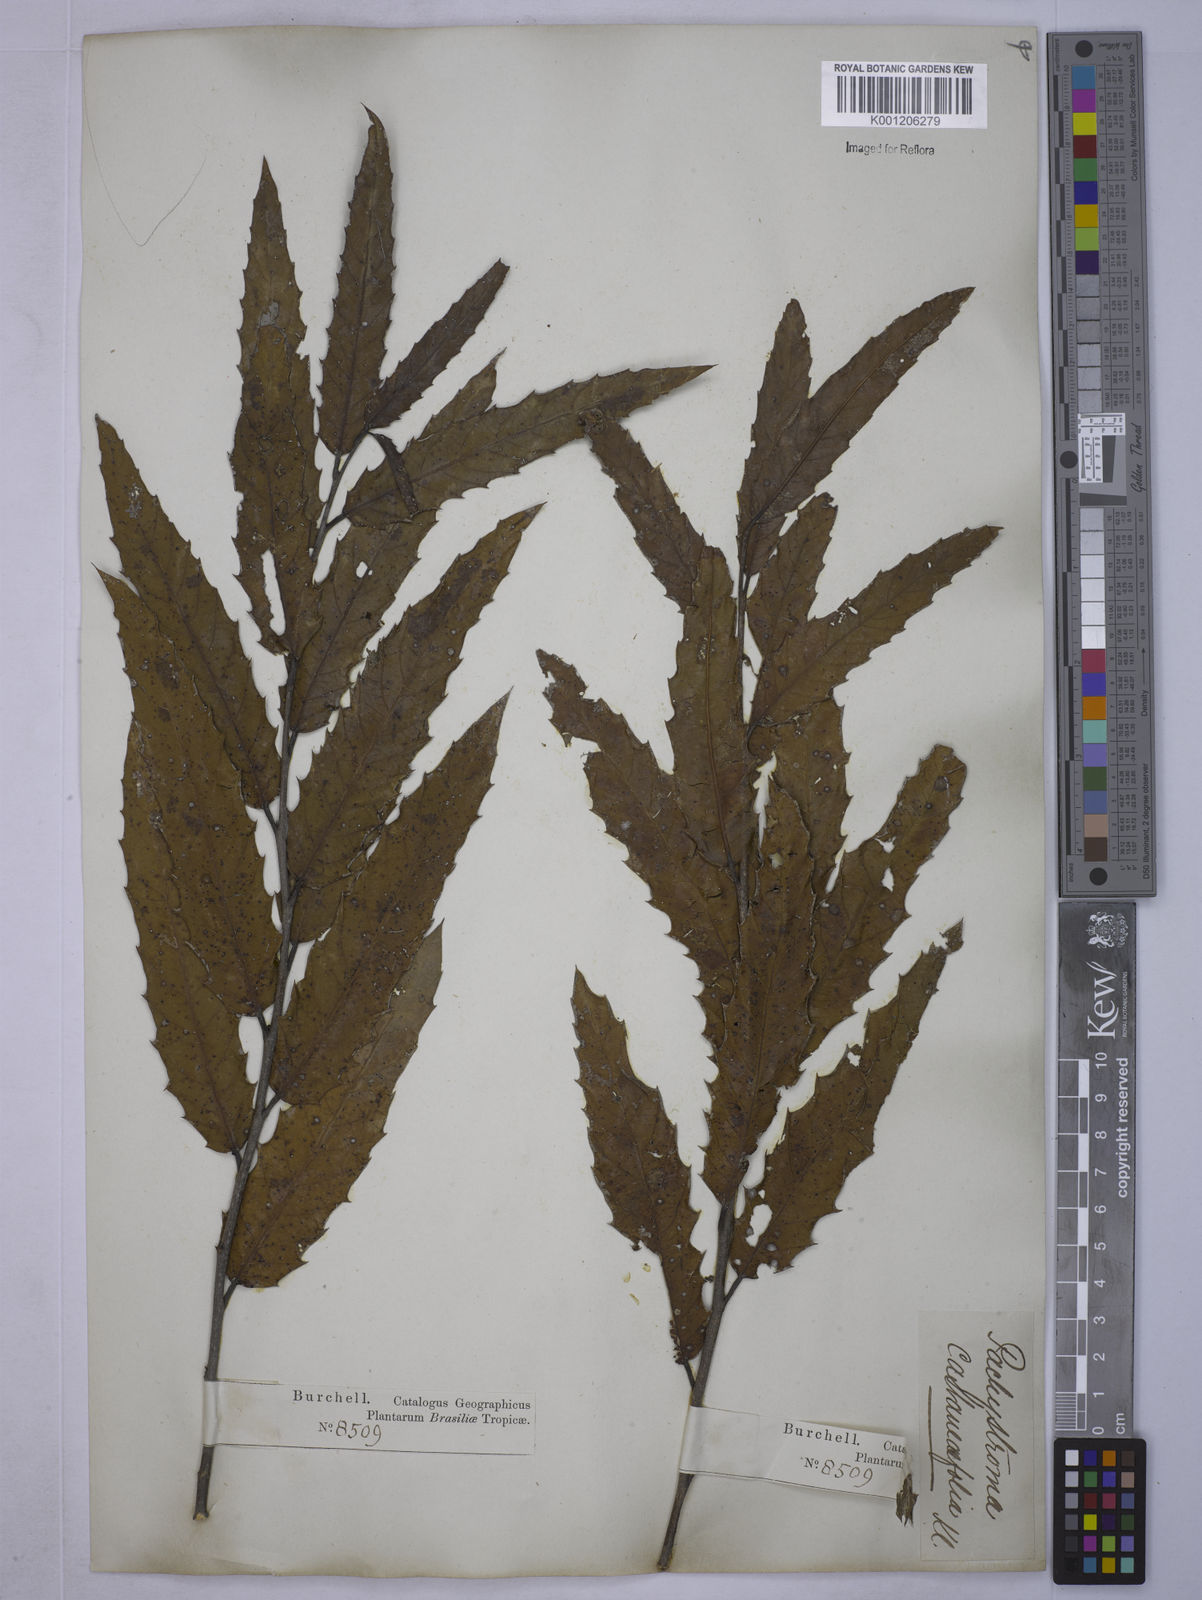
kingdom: Plantae
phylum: Tracheophyta
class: Magnoliopsida
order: Malpighiales
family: Euphorbiaceae
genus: Alchornea
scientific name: Alchornea castaneifolia
